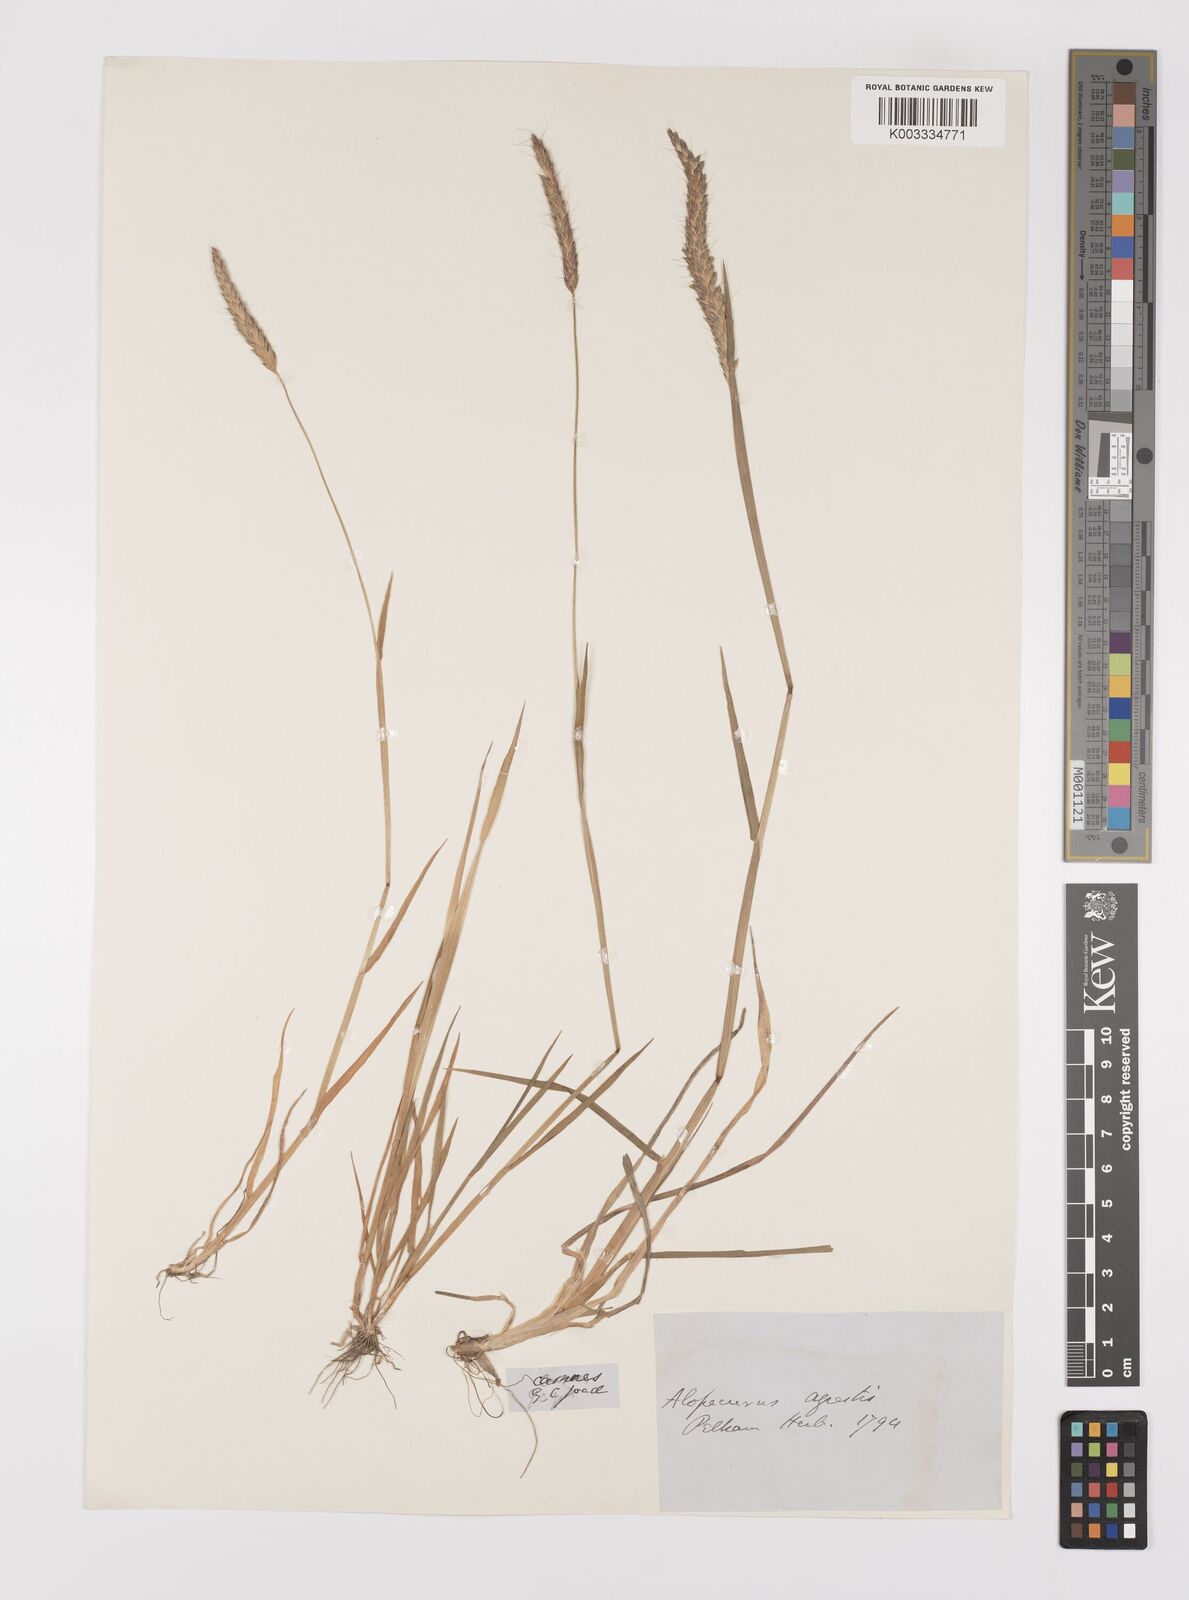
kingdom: Plantae
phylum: Tracheophyta
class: Liliopsida
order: Poales
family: Poaceae
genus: Alopecurus
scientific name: Alopecurus myosuroides
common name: Black-grass
